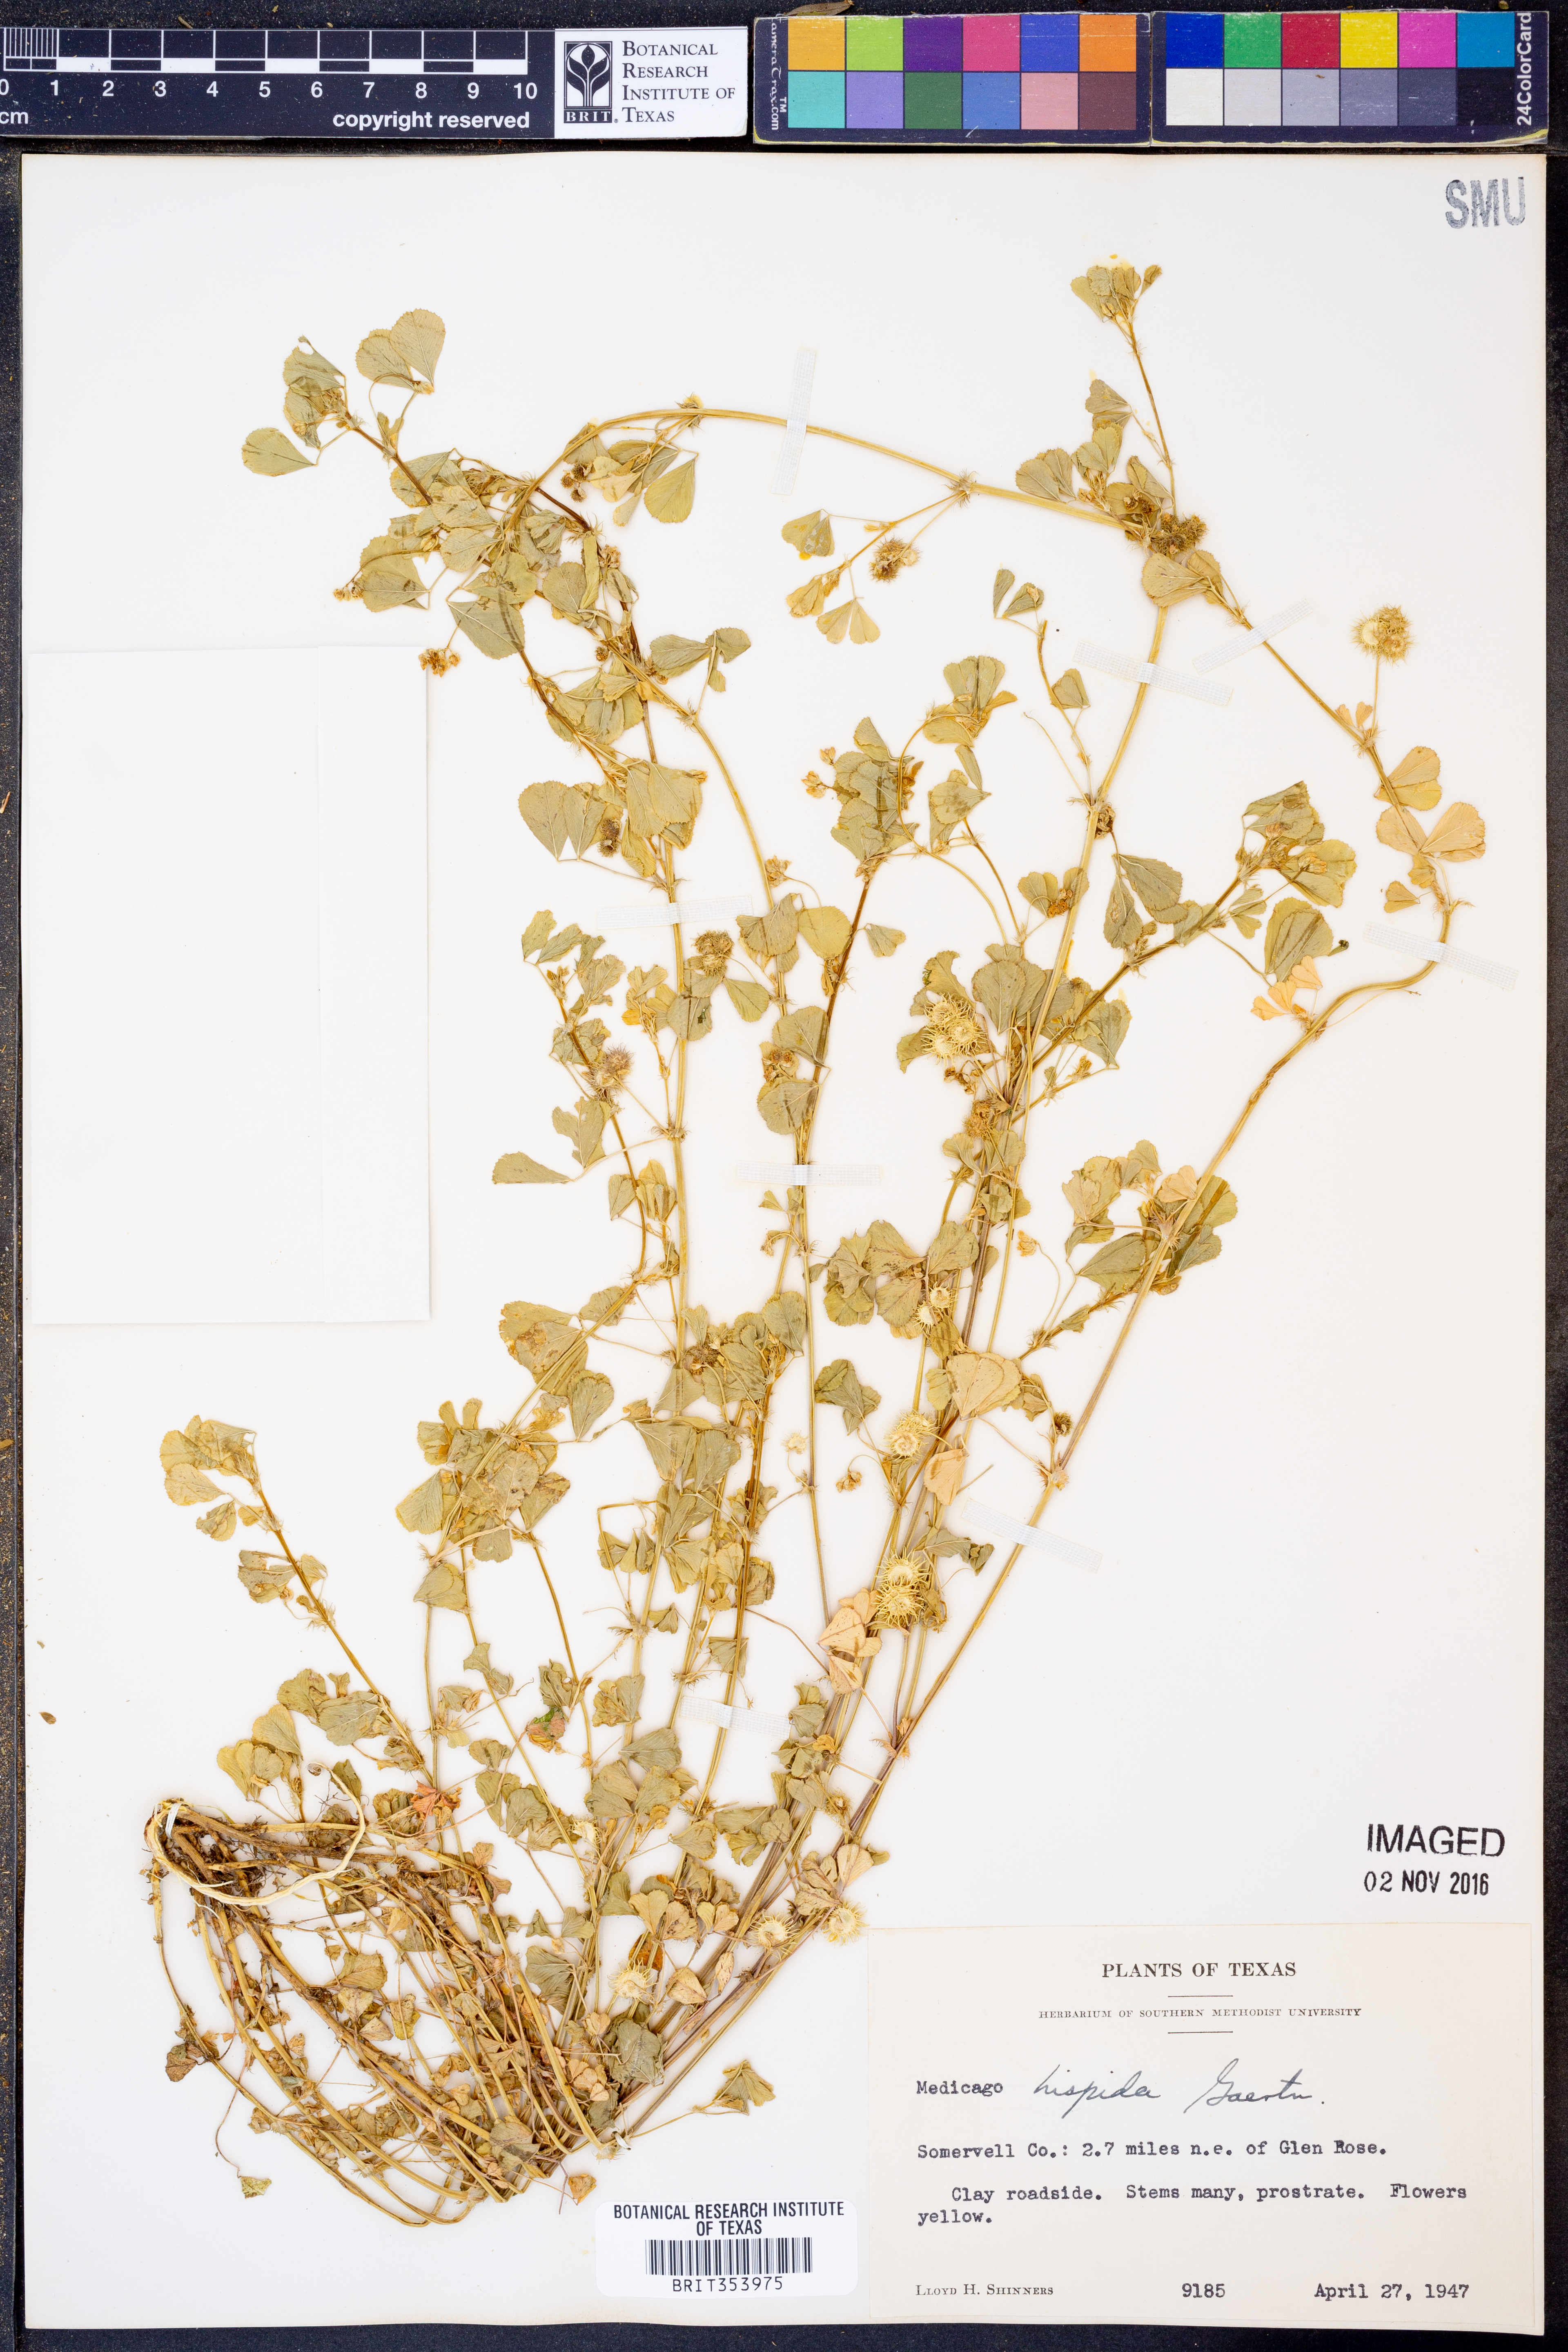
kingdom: Plantae
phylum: Tracheophyta
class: Magnoliopsida
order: Fabales
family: Fabaceae
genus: Medicago
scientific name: Medicago polymorpha
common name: Burclover
